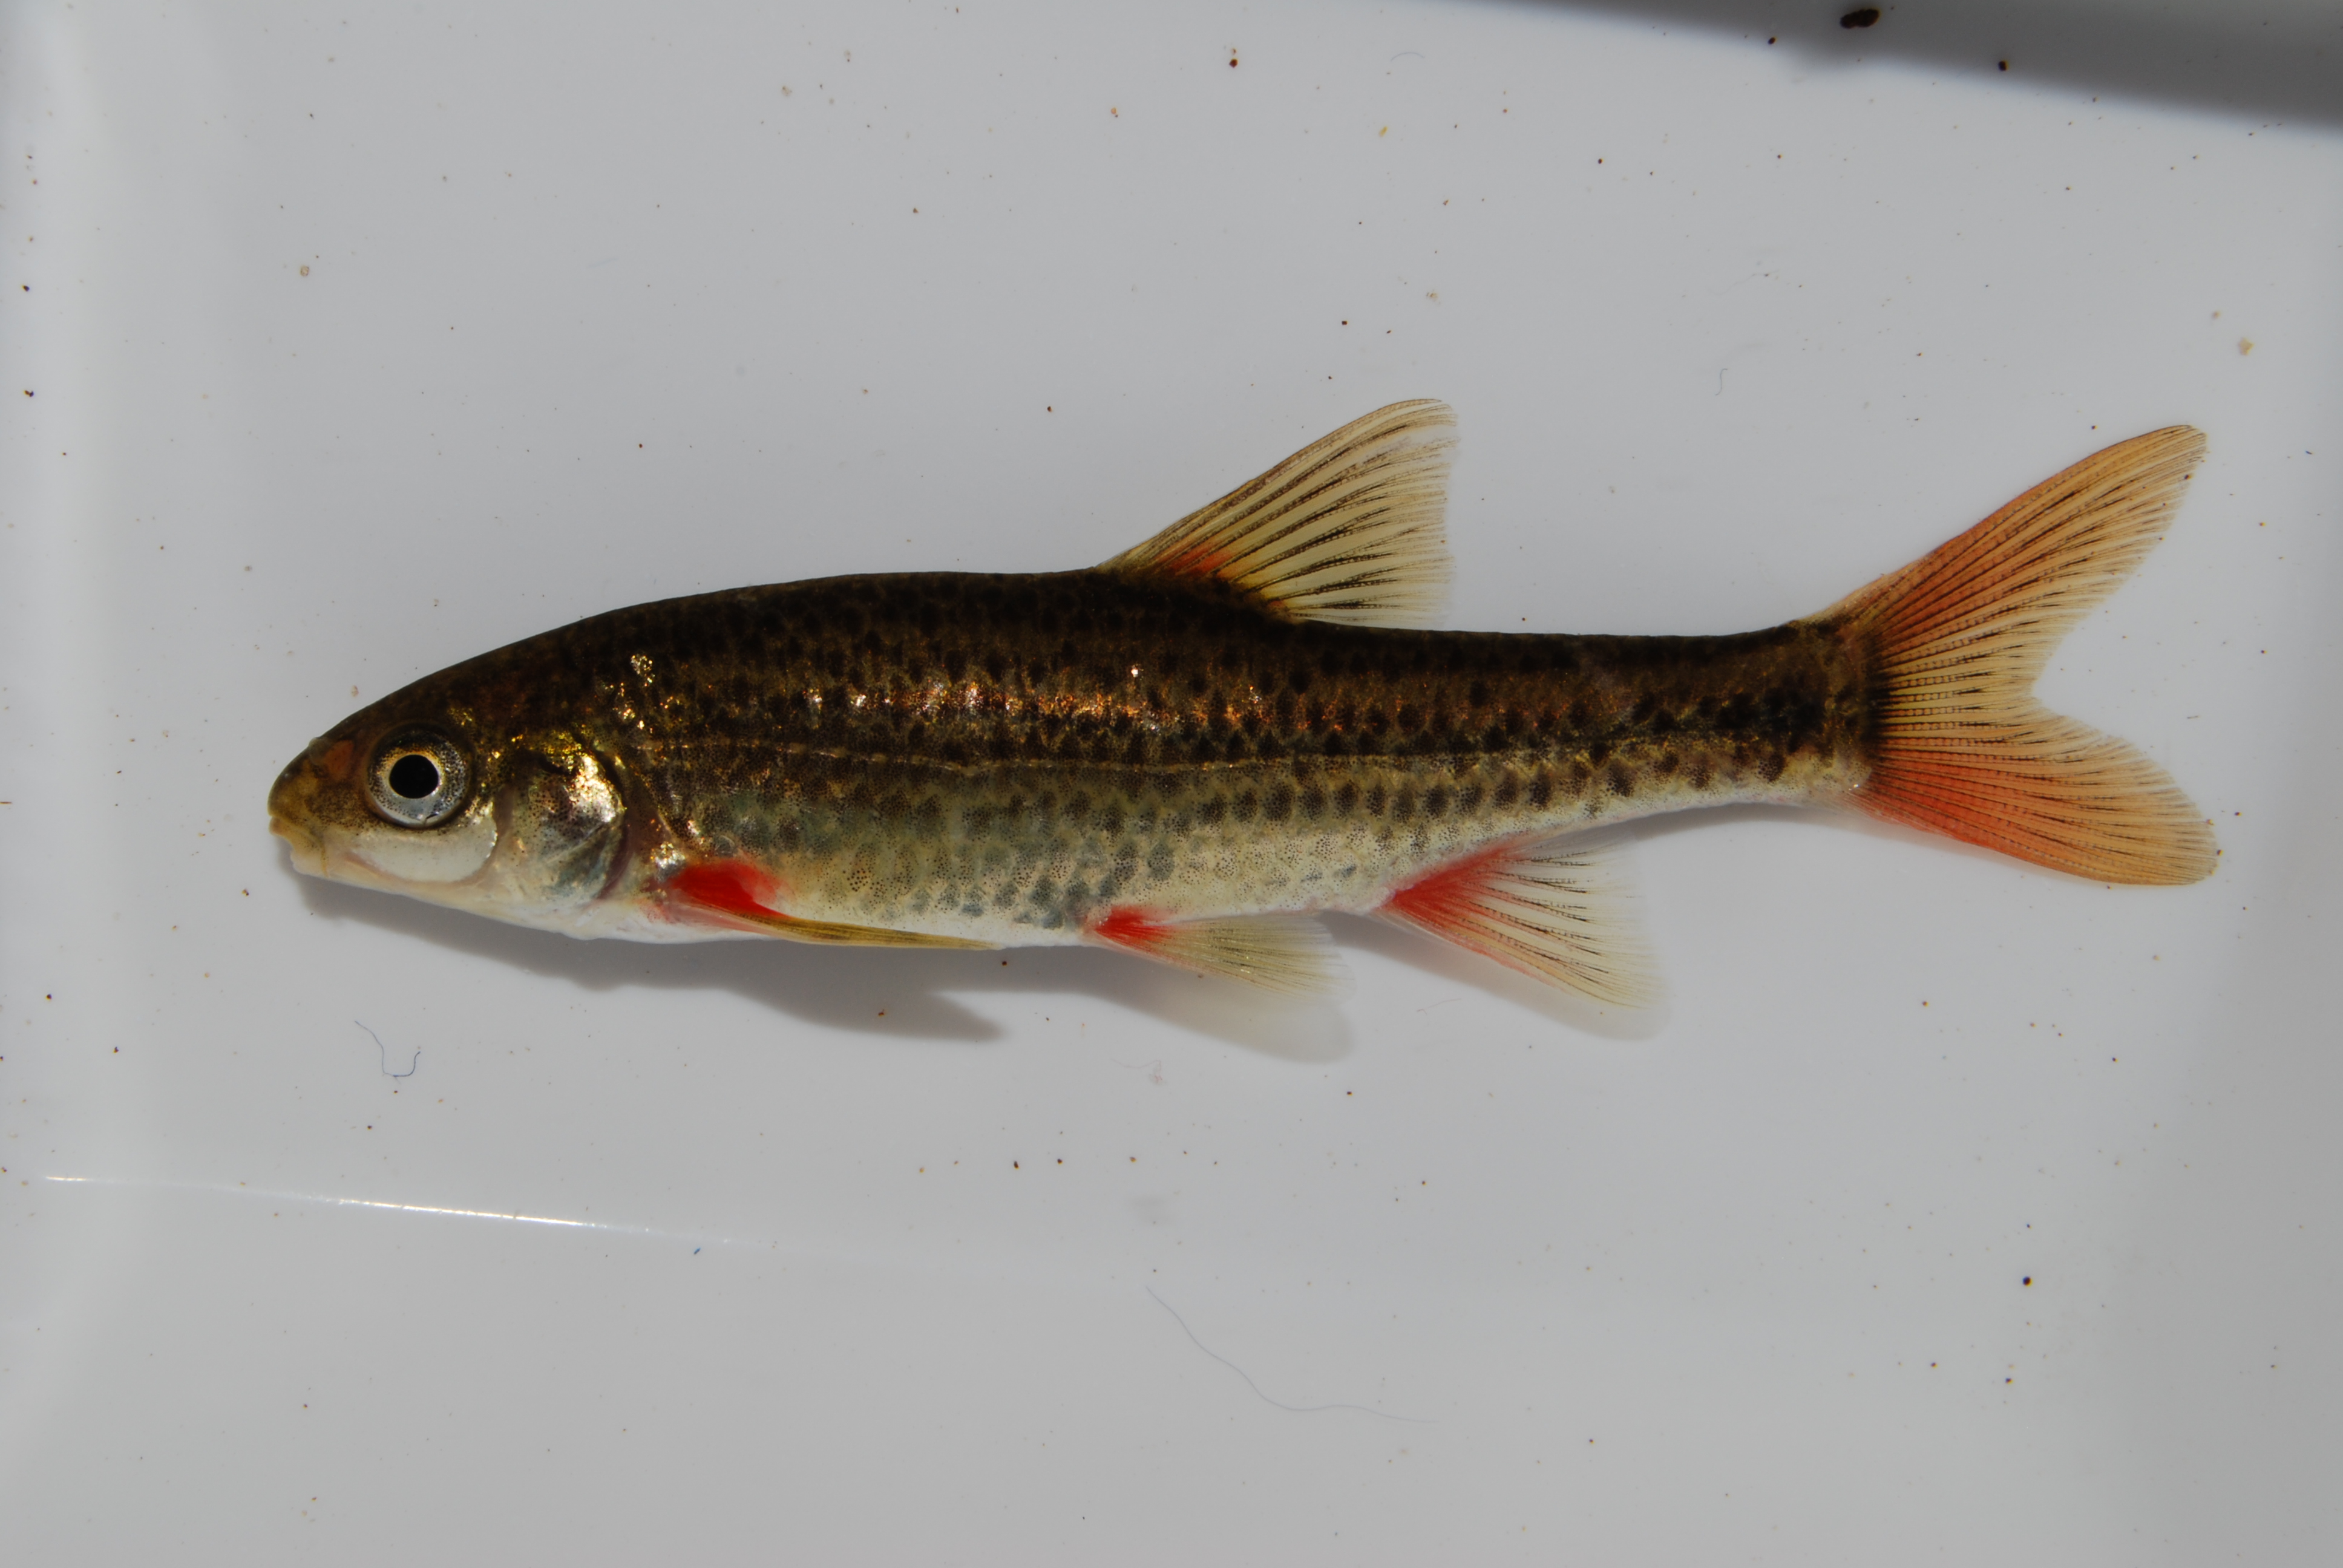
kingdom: Animalia
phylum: Chordata
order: Cypriniformes
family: Cyprinidae
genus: Pseudobarbus
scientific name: Pseudobarbus phlegethon
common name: Fiery redfin
